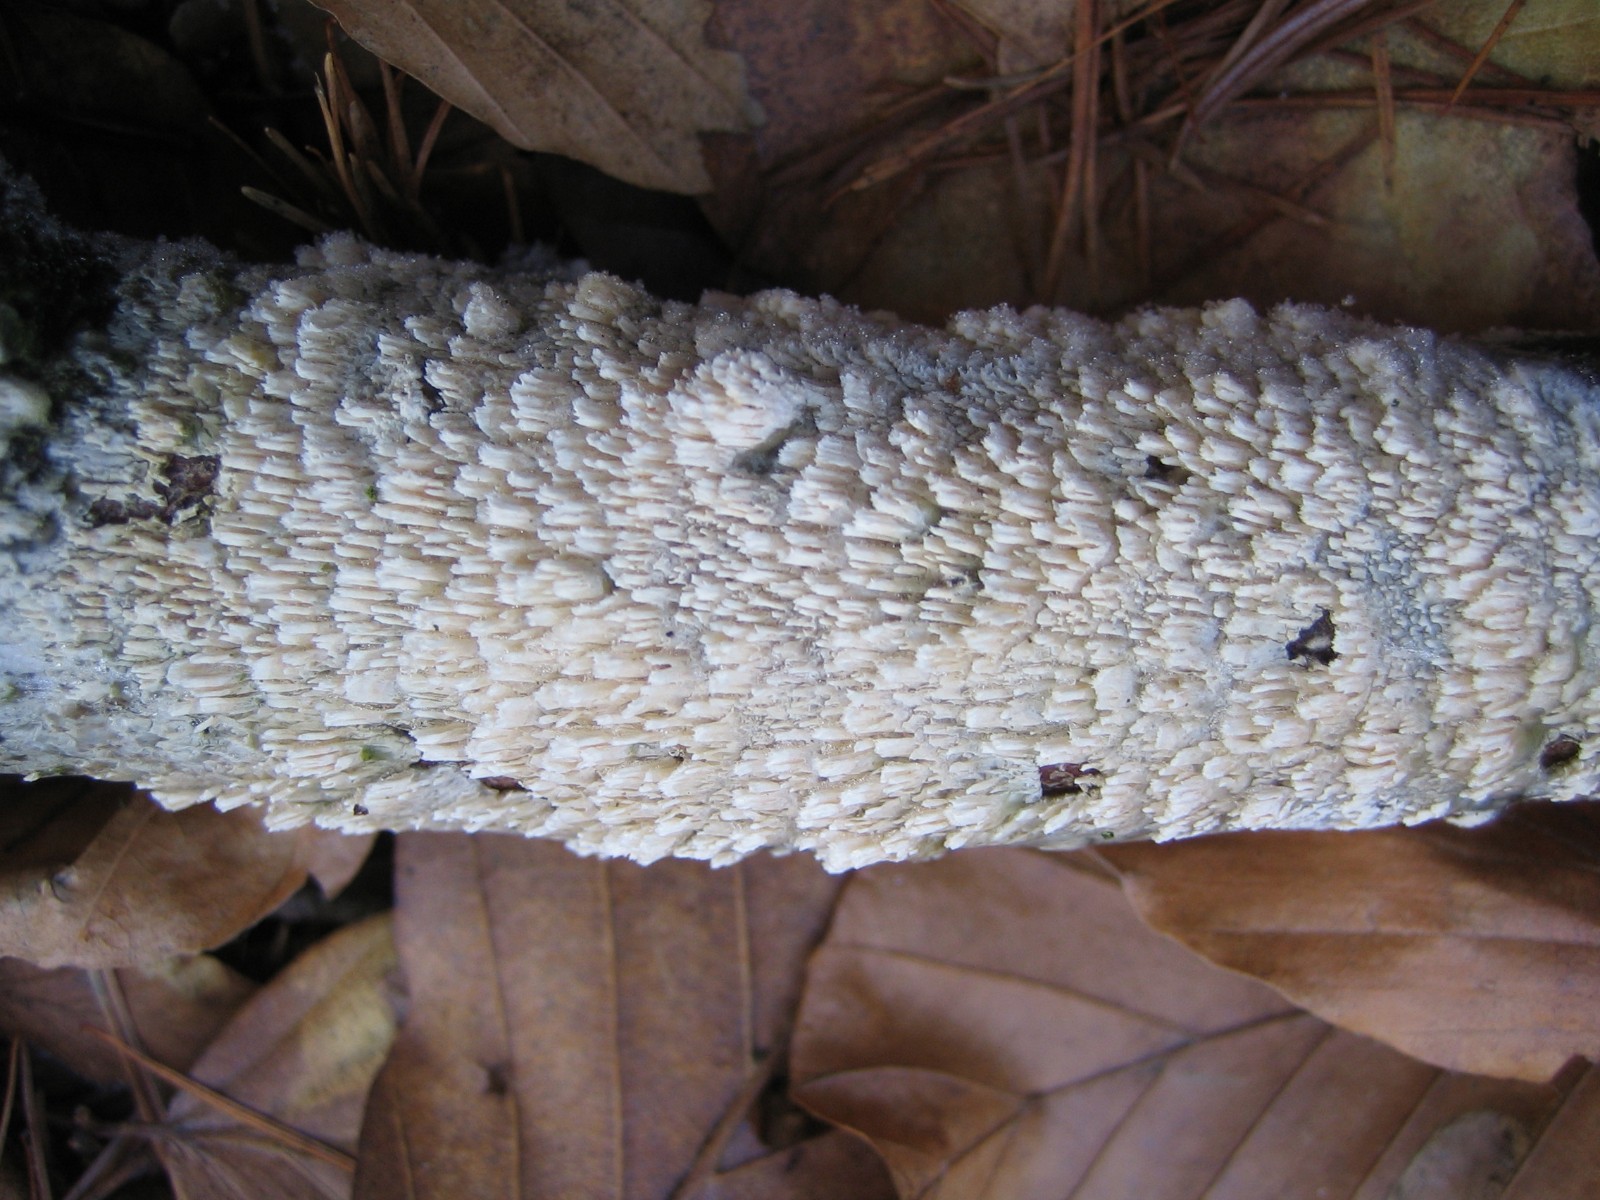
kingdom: Fungi
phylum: Basidiomycota
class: Agaricomycetes
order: Hymenochaetales
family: Schizoporaceae
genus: Schizopora
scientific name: Schizopora paradoxa
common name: hvid tandsvamp
